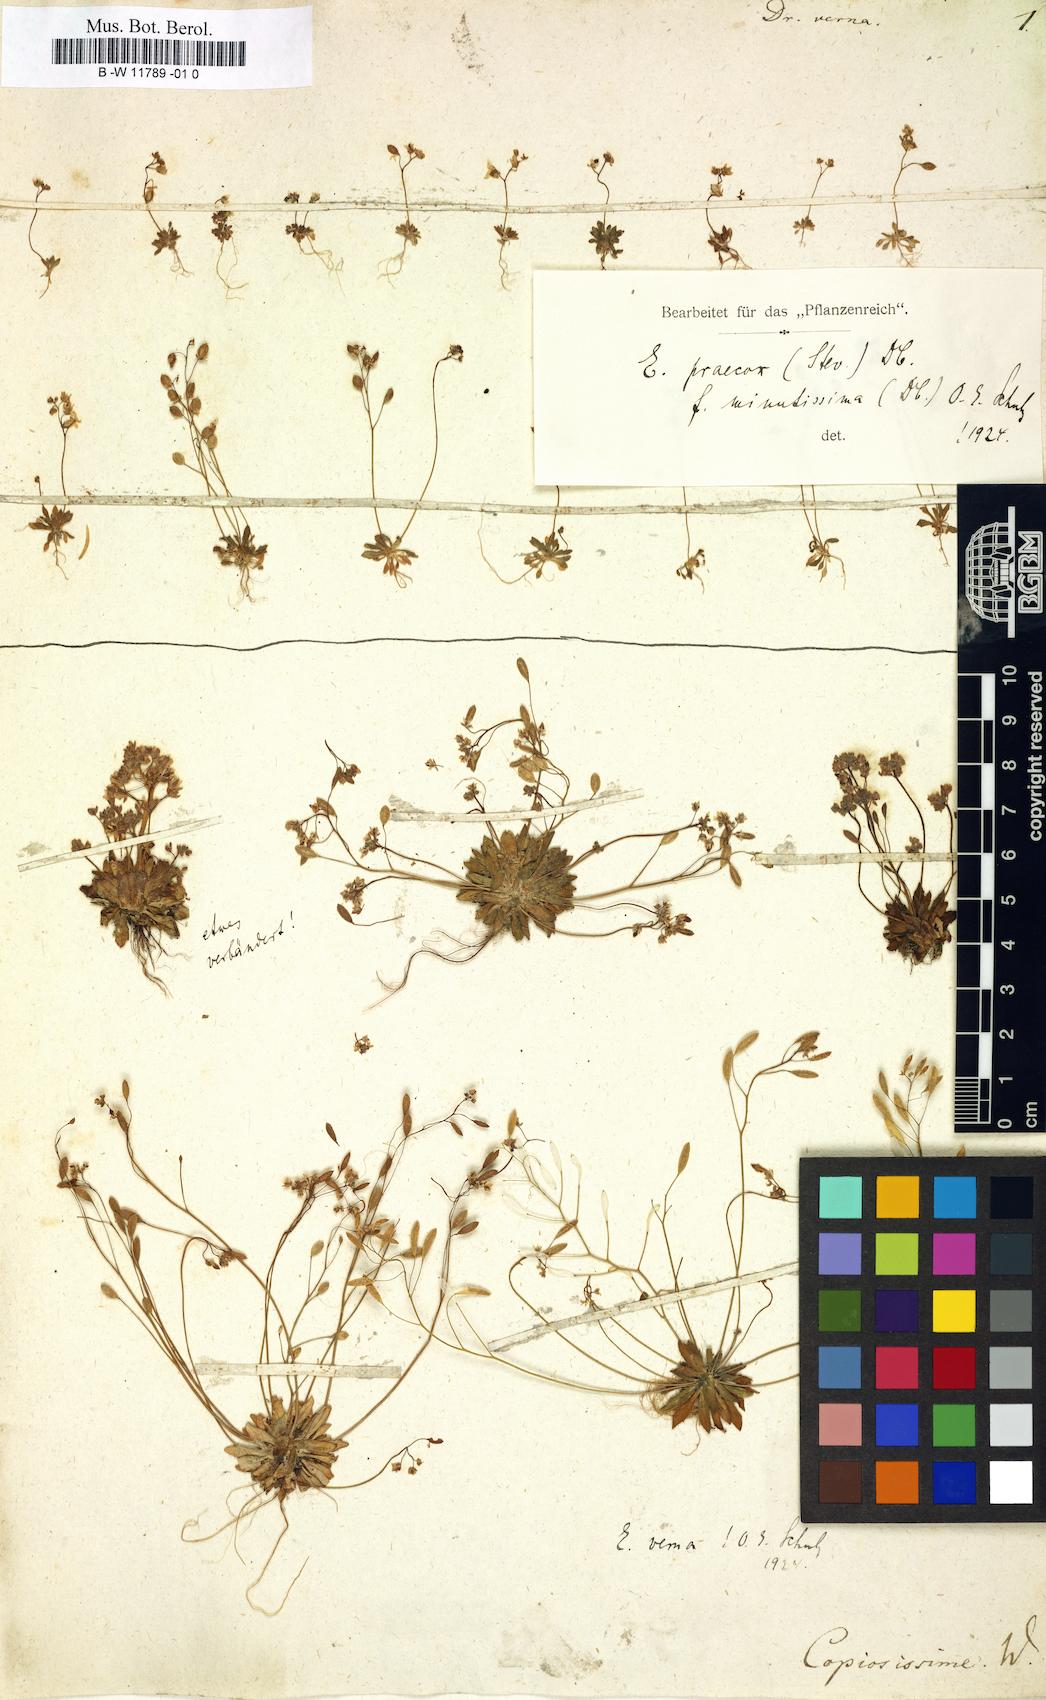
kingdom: Plantae
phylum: Tracheophyta
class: Magnoliopsida
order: Brassicales
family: Brassicaceae
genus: Draba
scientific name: Draba verna
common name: Spring draba
